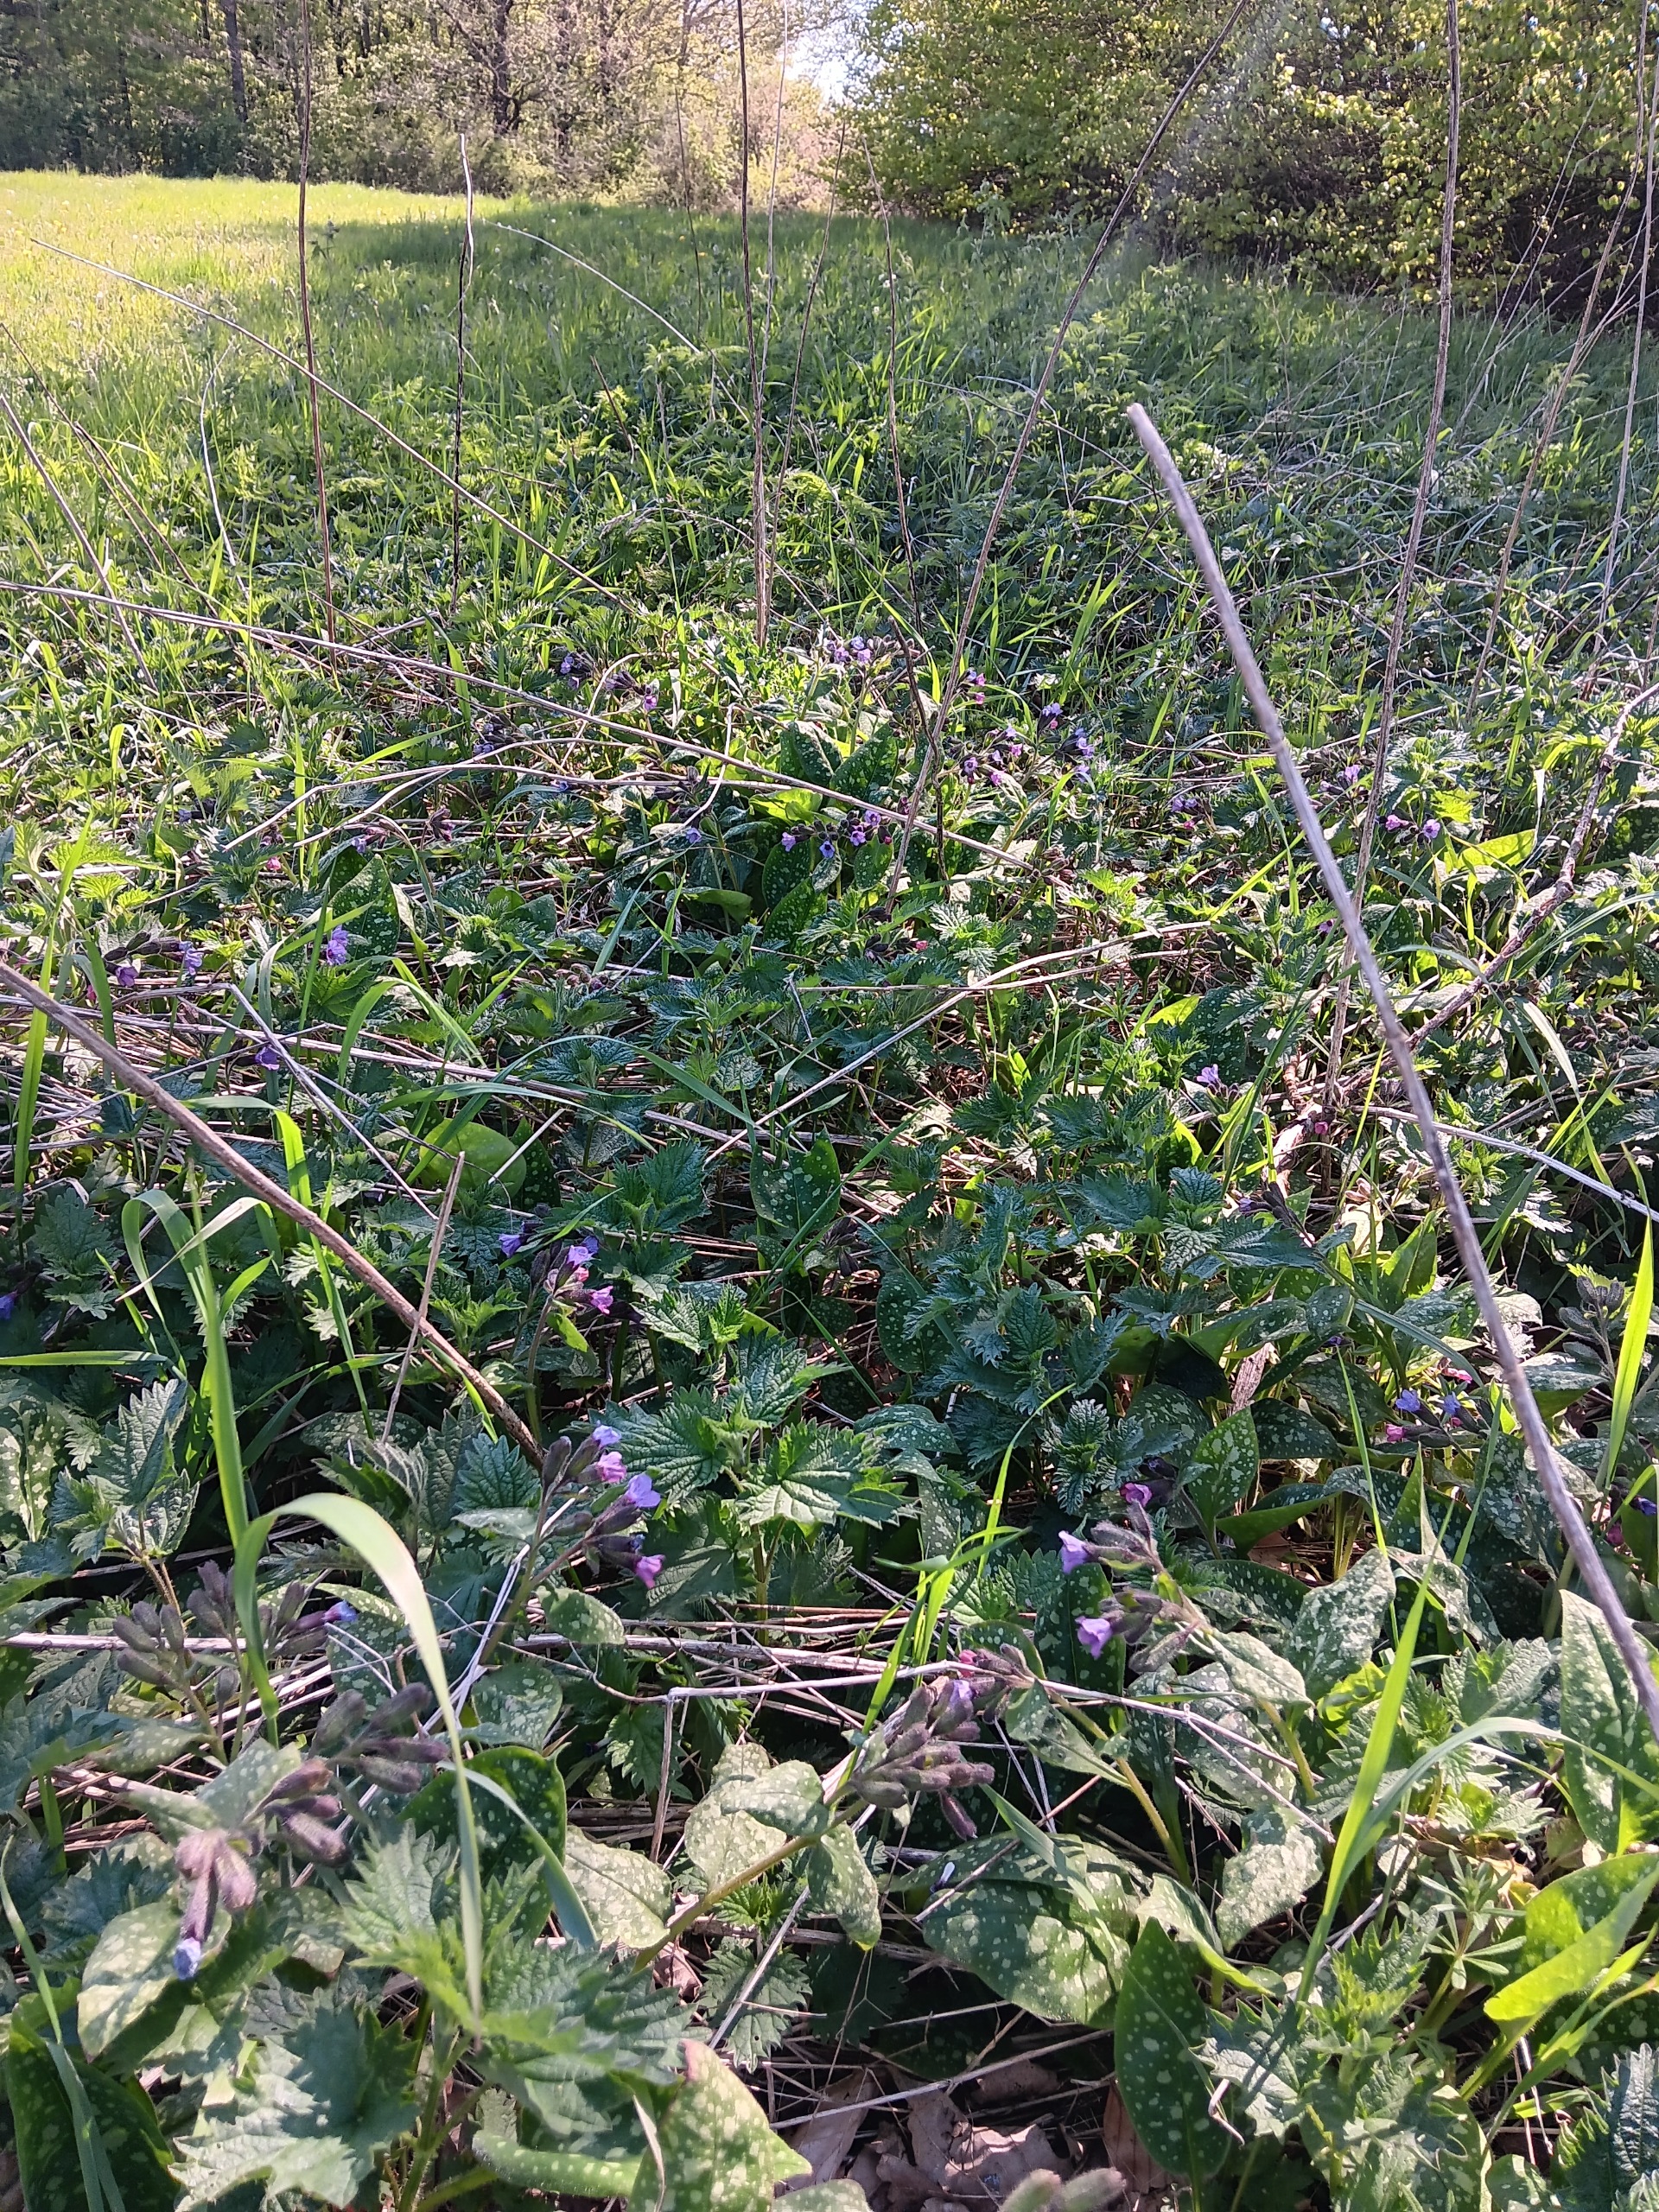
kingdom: Plantae
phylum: Tracheophyta
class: Magnoliopsida
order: Boraginales
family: Boraginaceae
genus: Pulmonaria
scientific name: Pulmonaria officinalis
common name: Hvidplettet lungeurt
